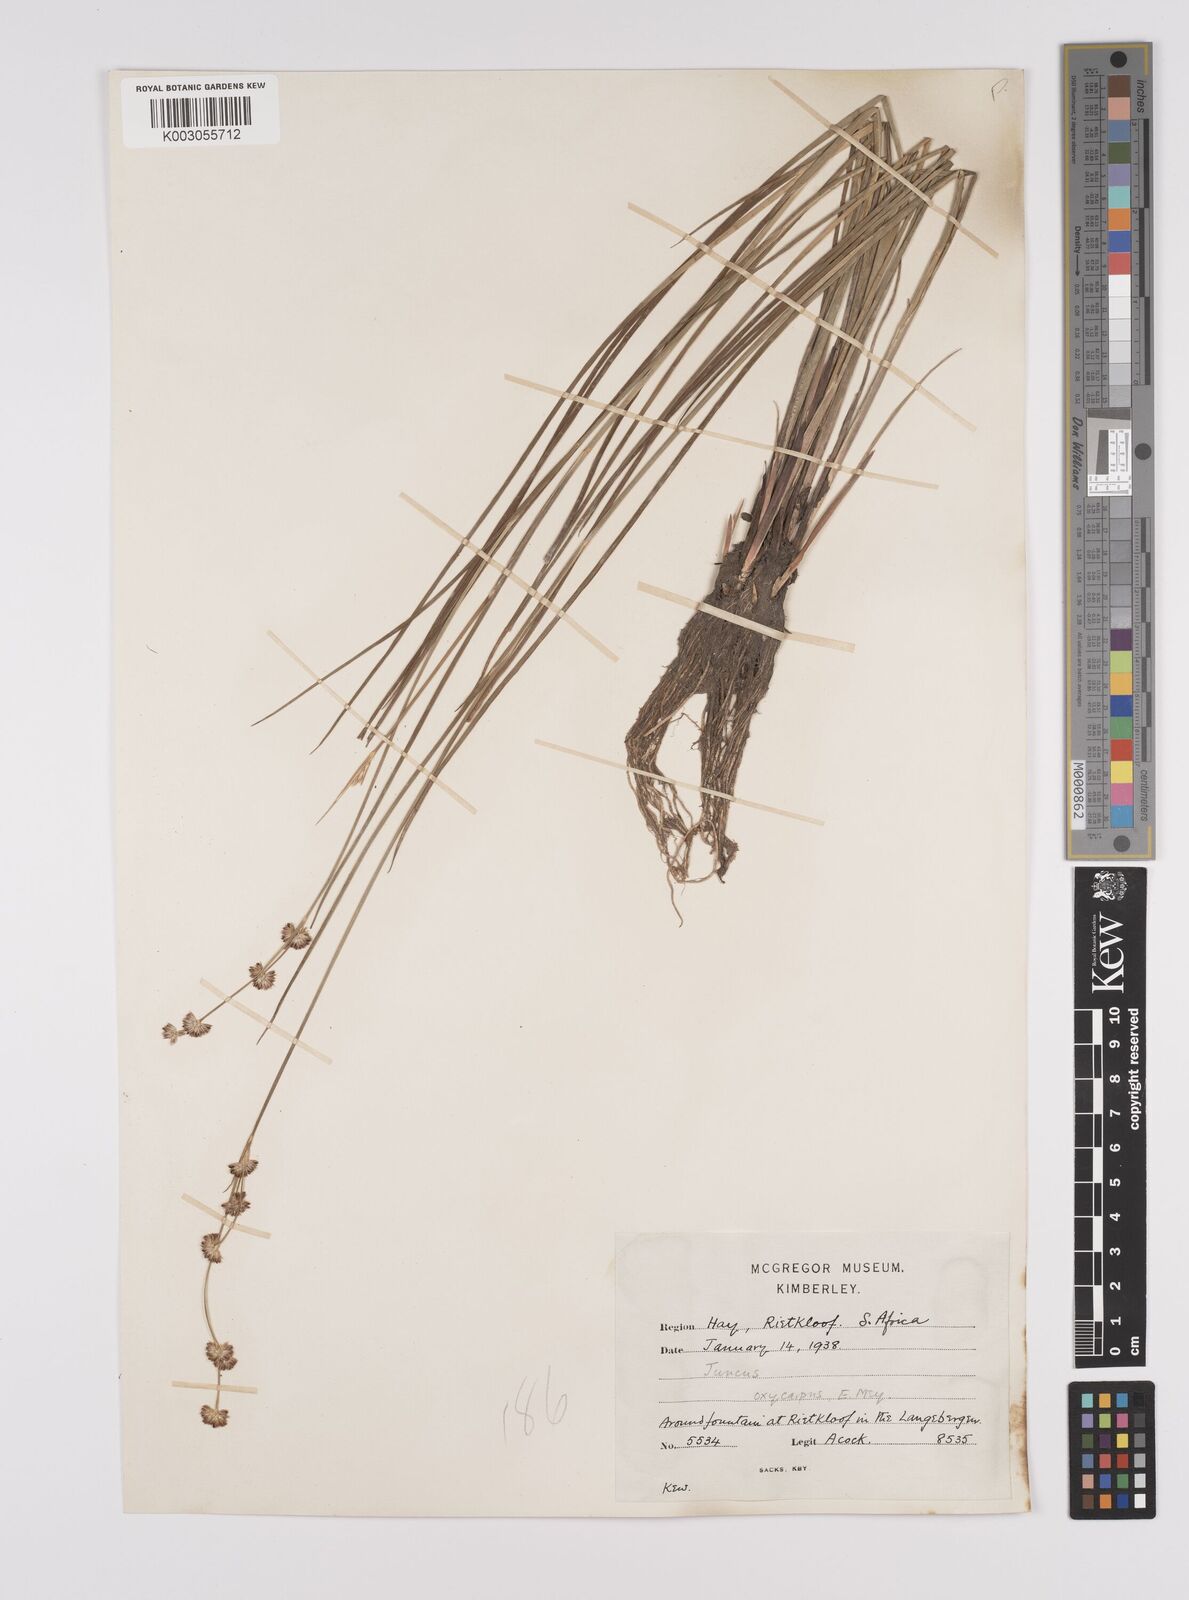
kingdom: Plantae
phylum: Tracheophyta
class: Liliopsida
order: Poales
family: Juncaceae
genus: Juncus
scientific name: Juncus oxycarpus
